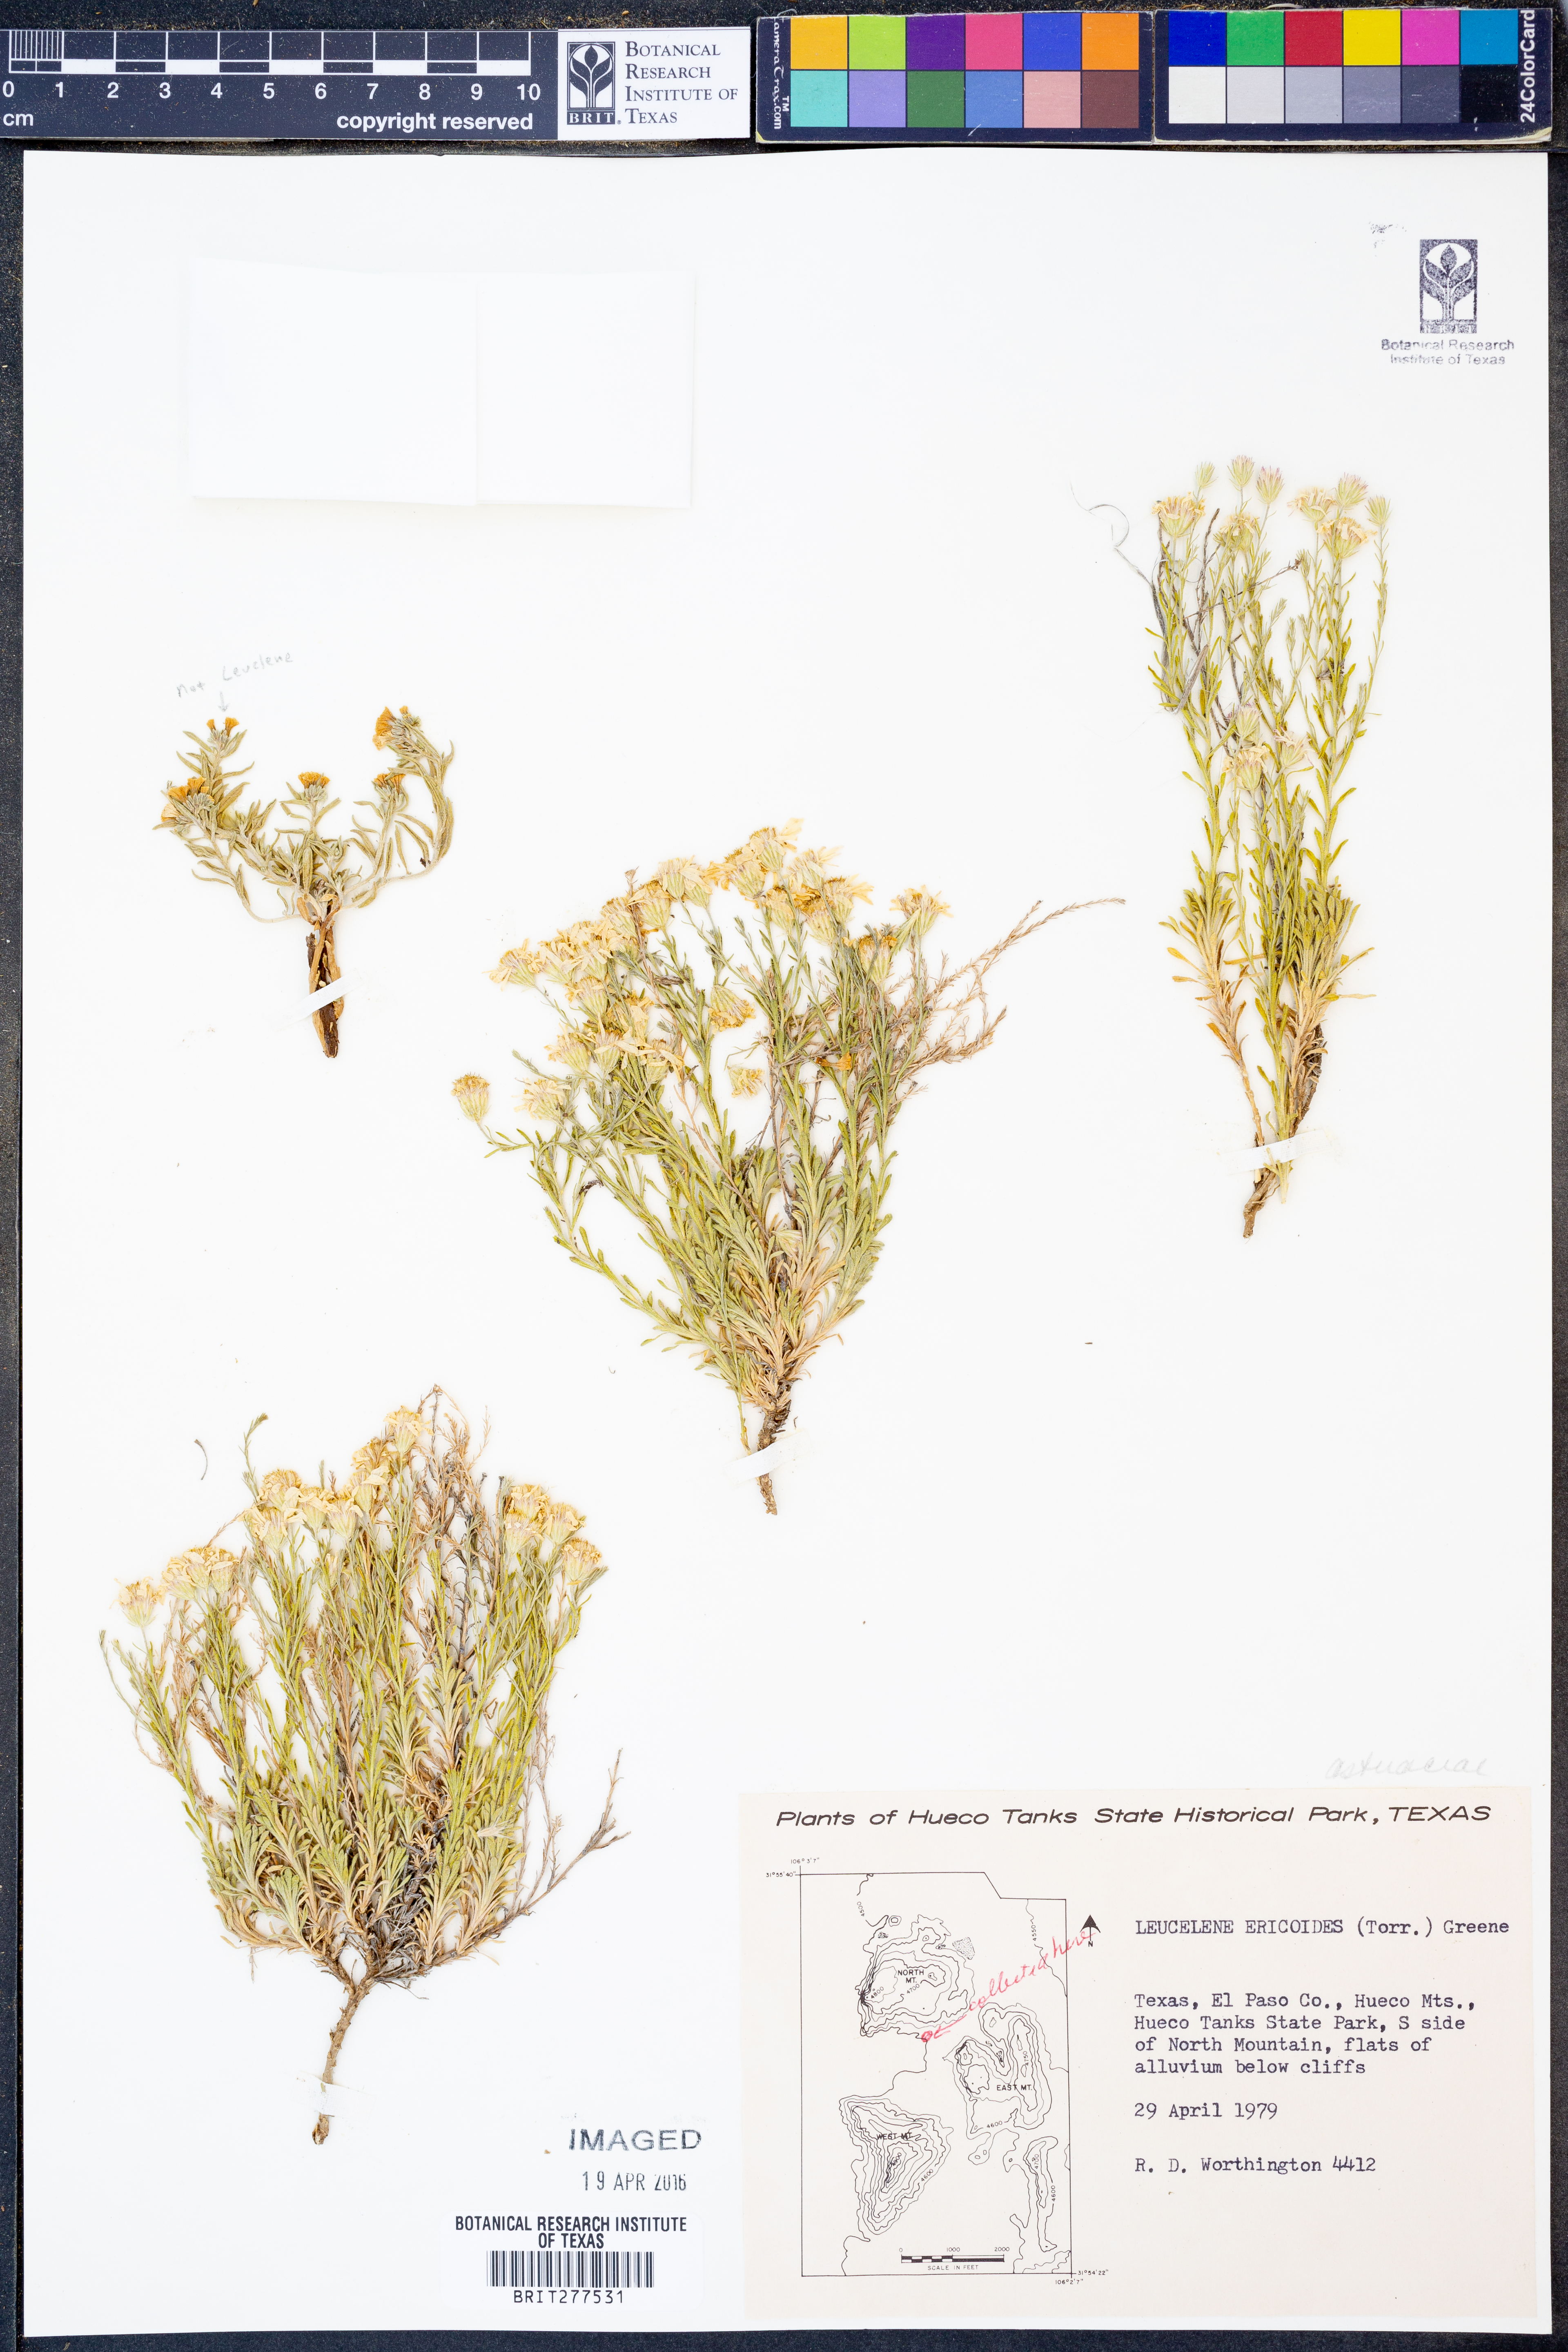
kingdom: Plantae
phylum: Tracheophyta
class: Magnoliopsida
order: Asterales
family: Asteraceae
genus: Chaetopappa
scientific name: Chaetopappa ericoides
